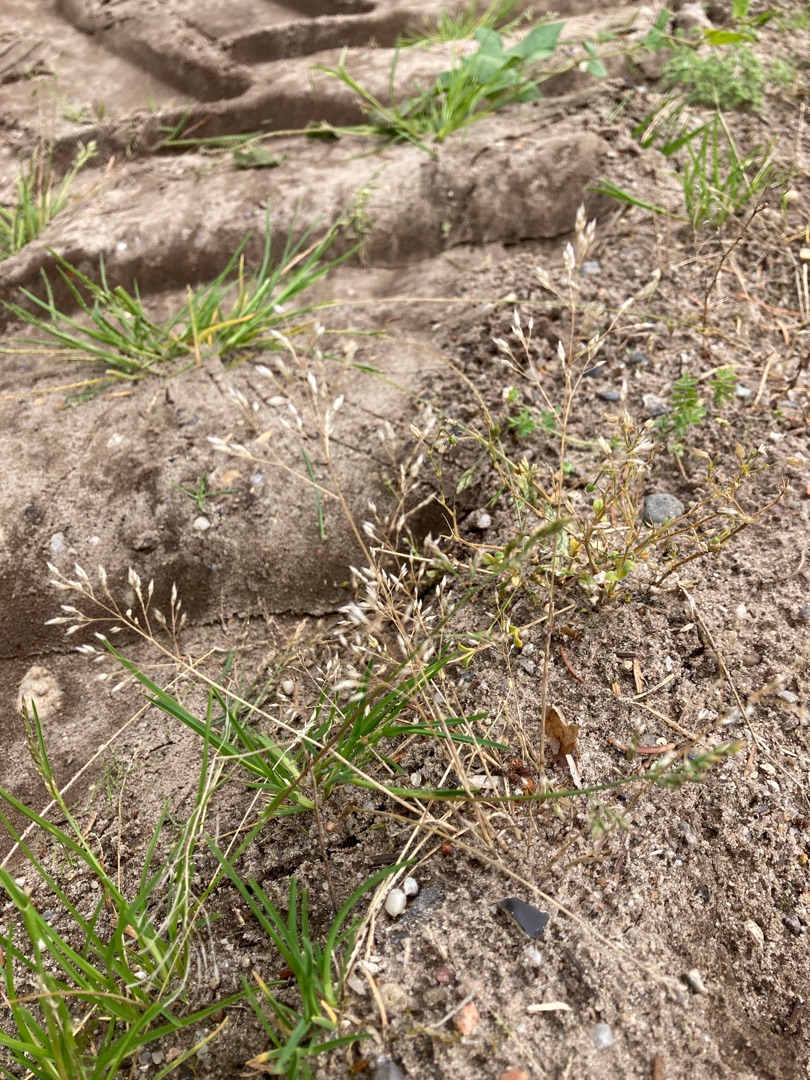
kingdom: Plantae
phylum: Tracheophyta
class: Liliopsida
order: Poales
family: Poaceae
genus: Aira
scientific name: Aira caryophyllea
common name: Udspærret dværgbunke
